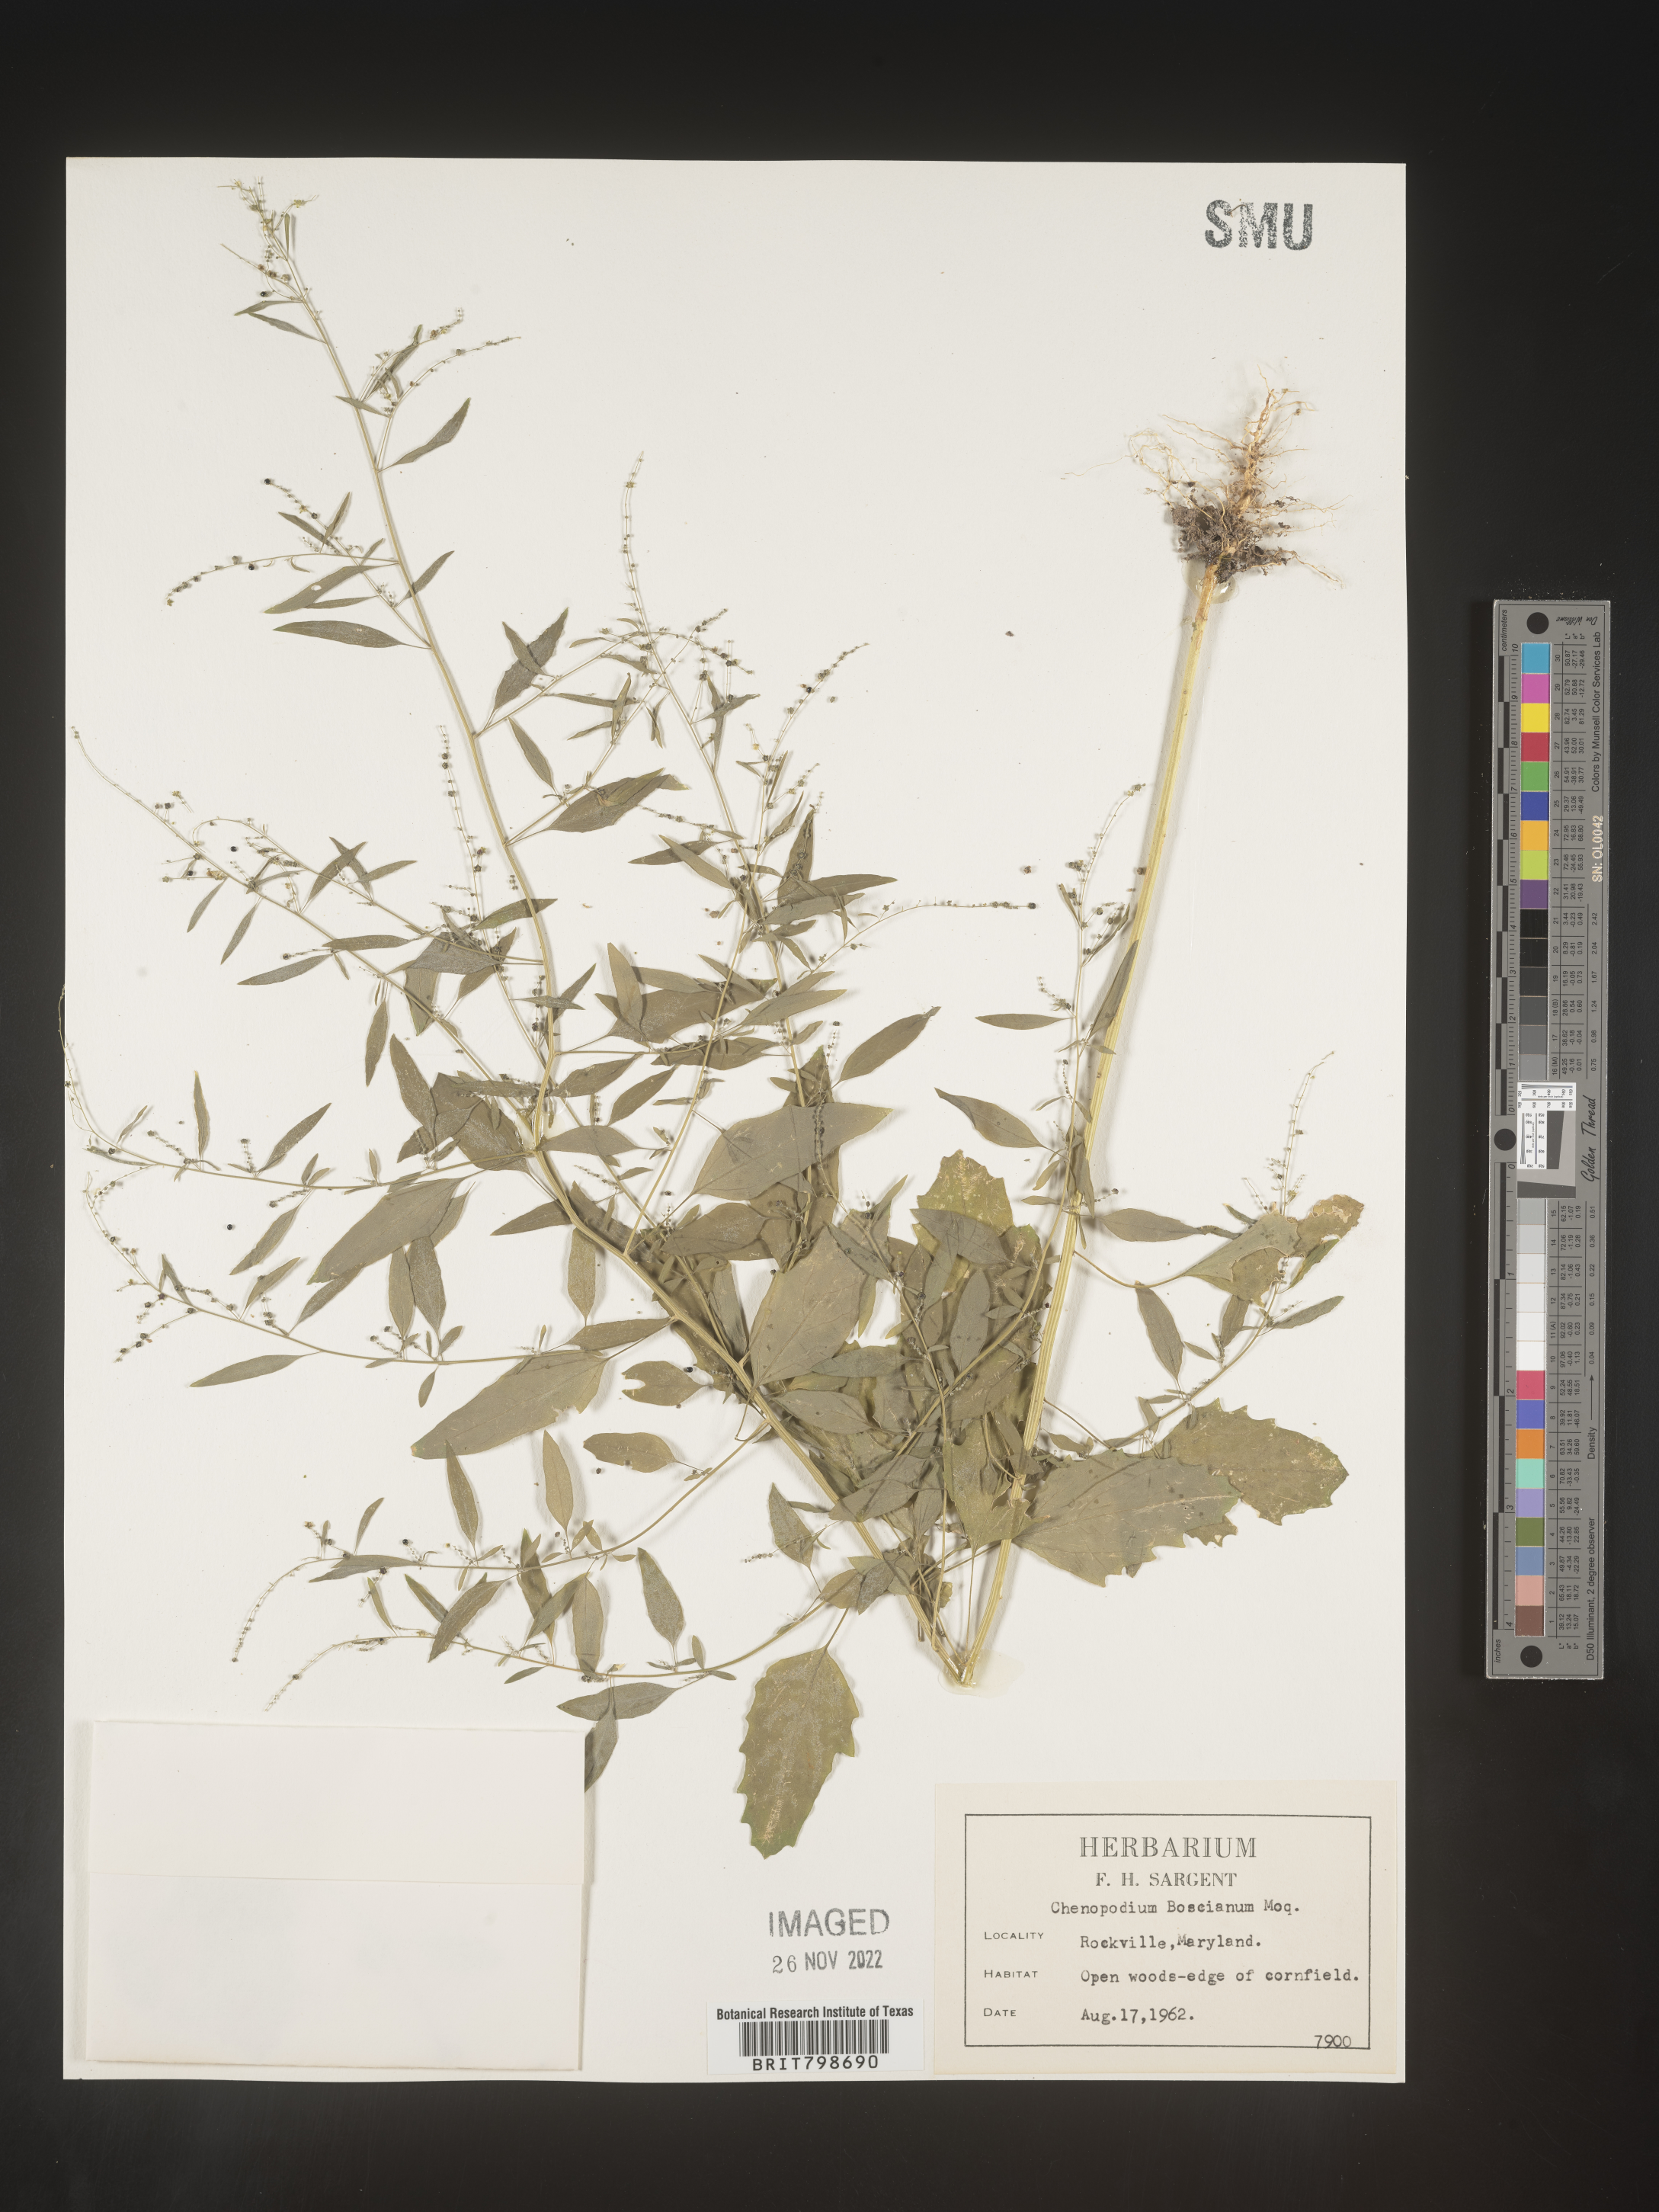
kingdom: Plantae
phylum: Tracheophyta
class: Magnoliopsida
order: Caryophyllales
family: Amaranthaceae
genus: Chenopodium
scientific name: Chenopodium berlandieri
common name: Pit-seed goosefoot
